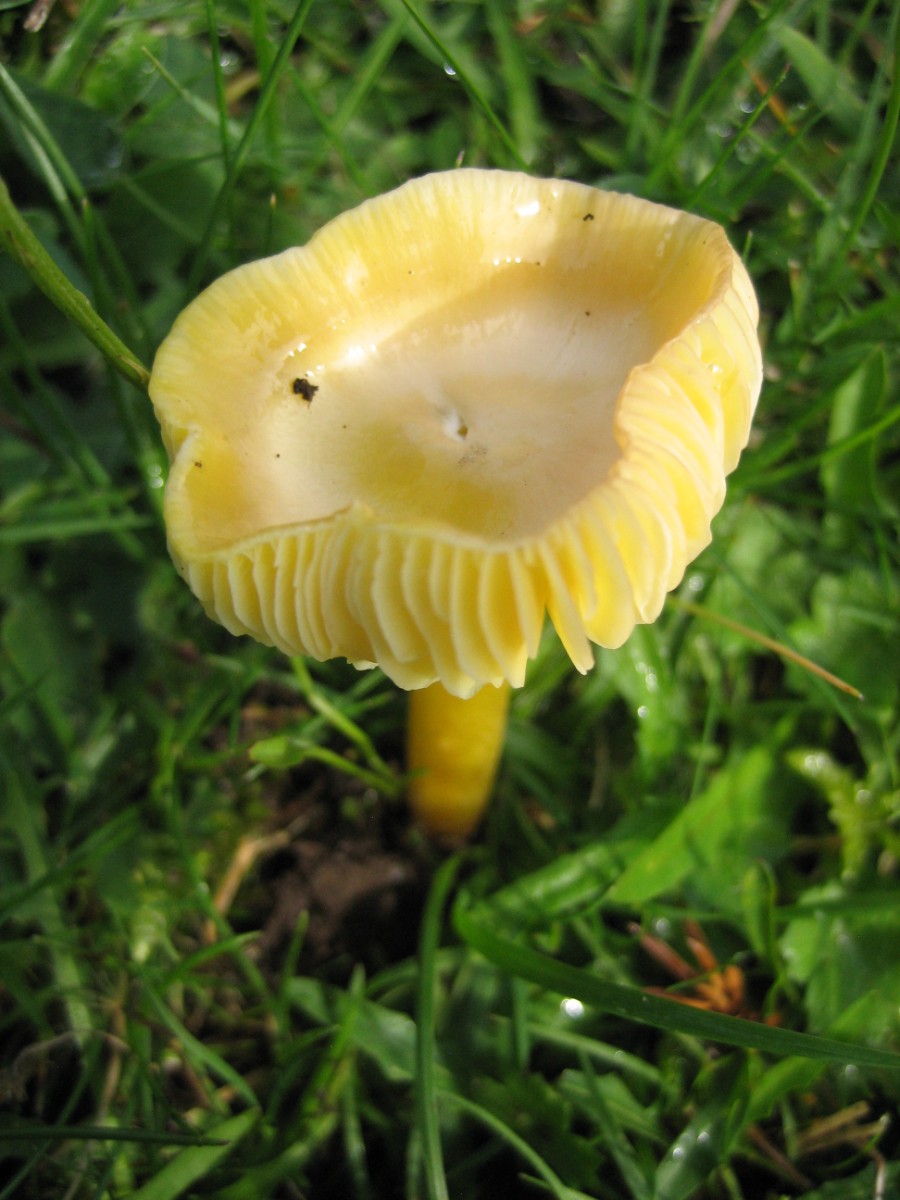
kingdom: Fungi
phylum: Basidiomycota
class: Agaricomycetes
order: Agaricales
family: Hygrophoraceae
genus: Hygrocybe
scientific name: Hygrocybe chlorophana
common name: gul vokshat
